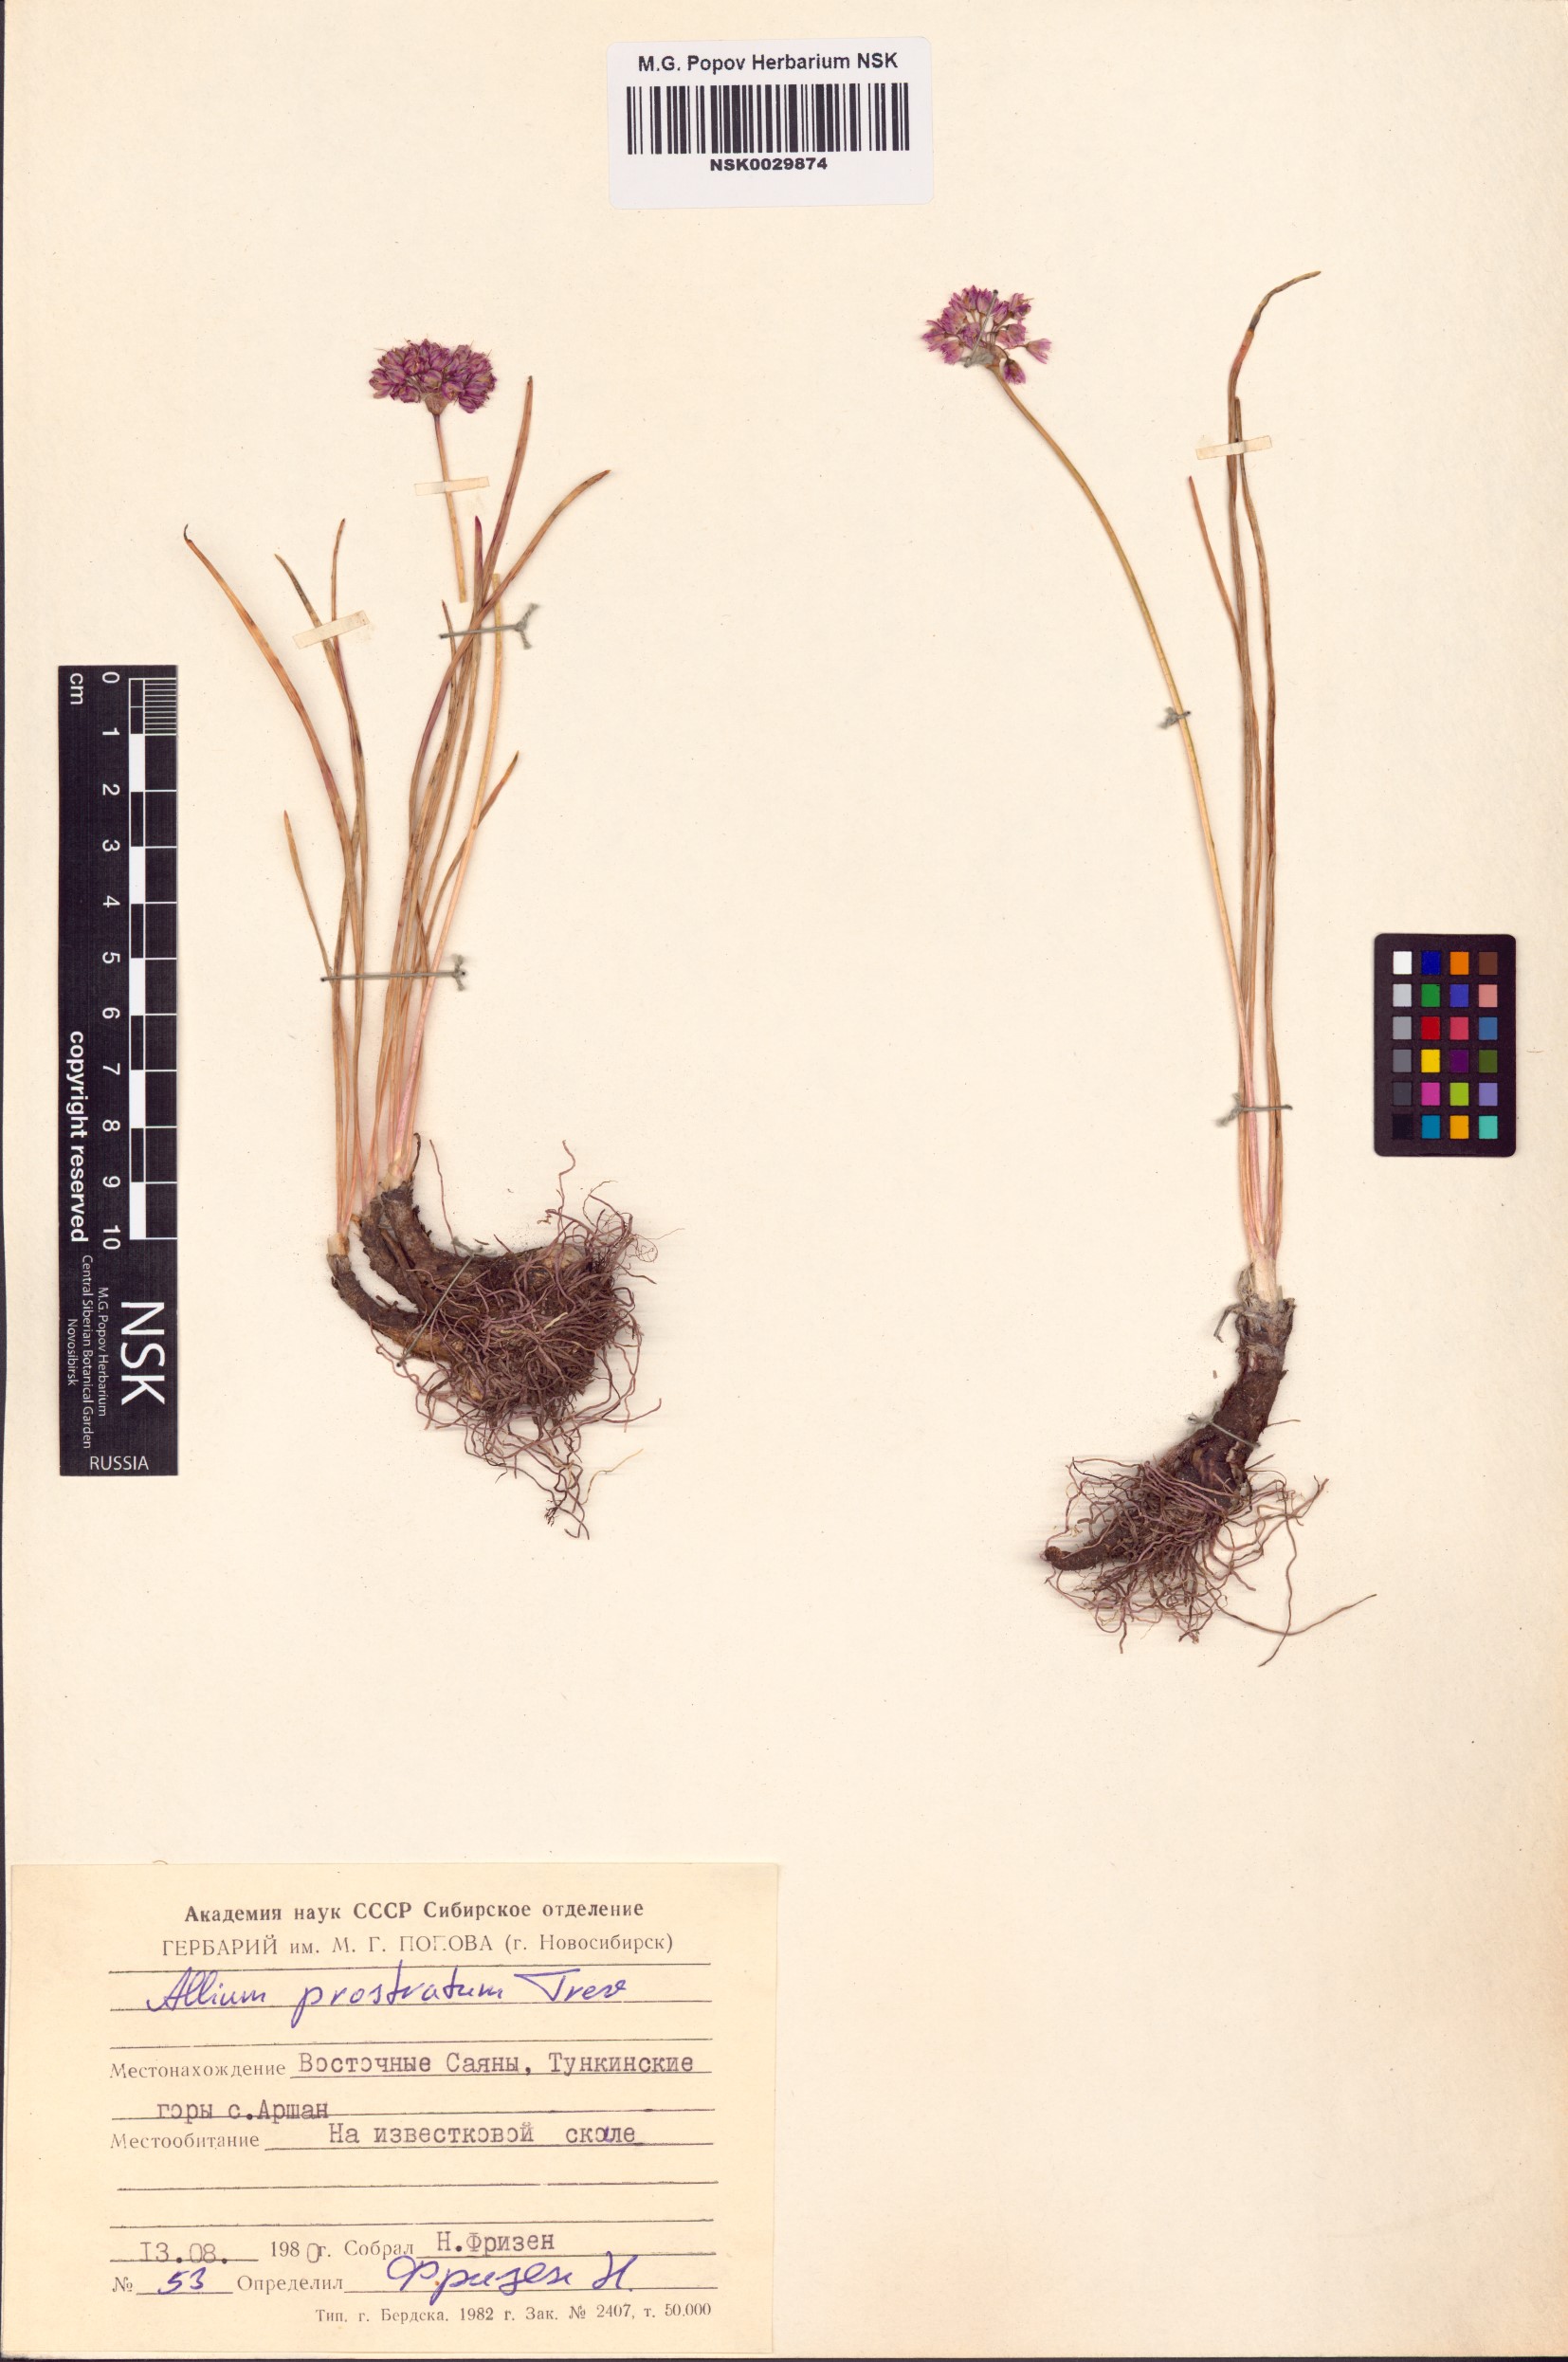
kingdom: Plantae
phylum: Tracheophyta
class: Liliopsida
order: Asparagales
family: Amaryllidaceae
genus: Allium
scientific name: Allium prostratum
